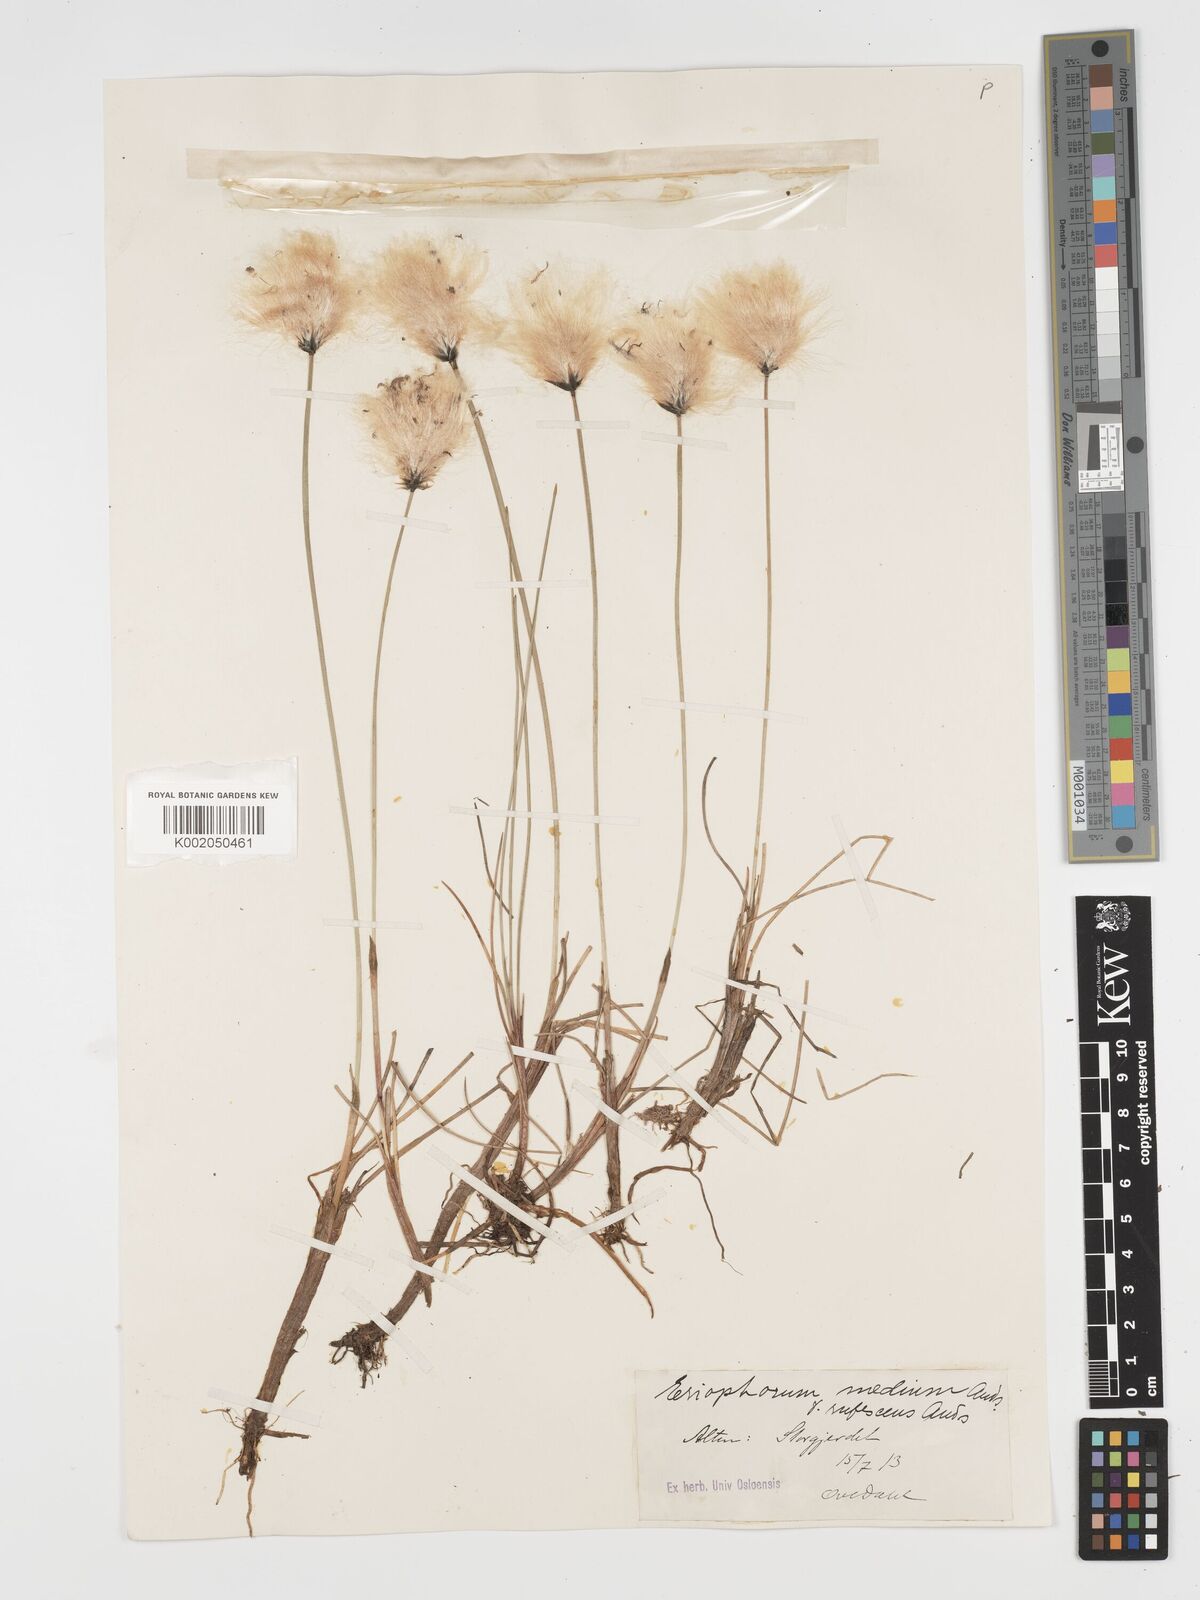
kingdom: Plantae
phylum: Tracheophyta
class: Liliopsida
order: Poales
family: Cyperaceae
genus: Eriophorum
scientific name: Eriophorum scheuchzeri
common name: Scheuchzer's cottongrass
